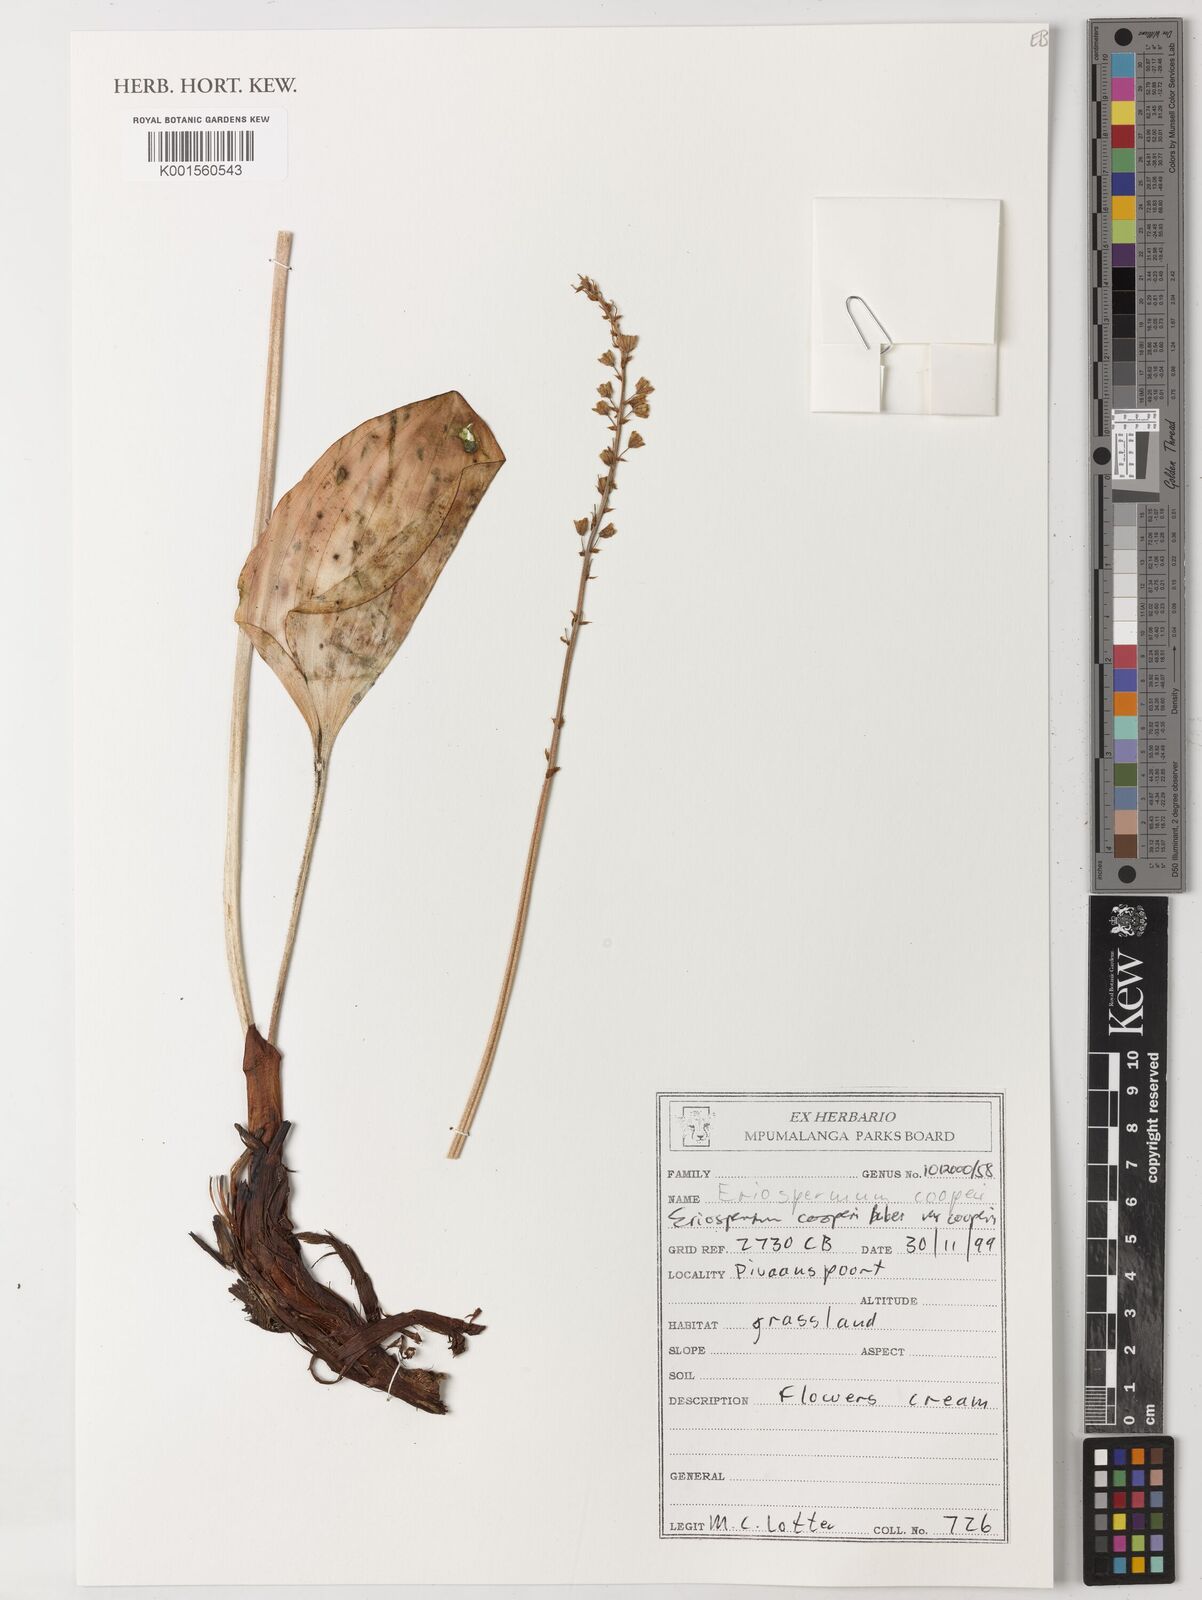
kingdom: Plantae
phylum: Tracheophyta
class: Liliopsida
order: Asparagales
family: Asparagaceae
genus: Eriospermum
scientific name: Eriospermum cooperi
